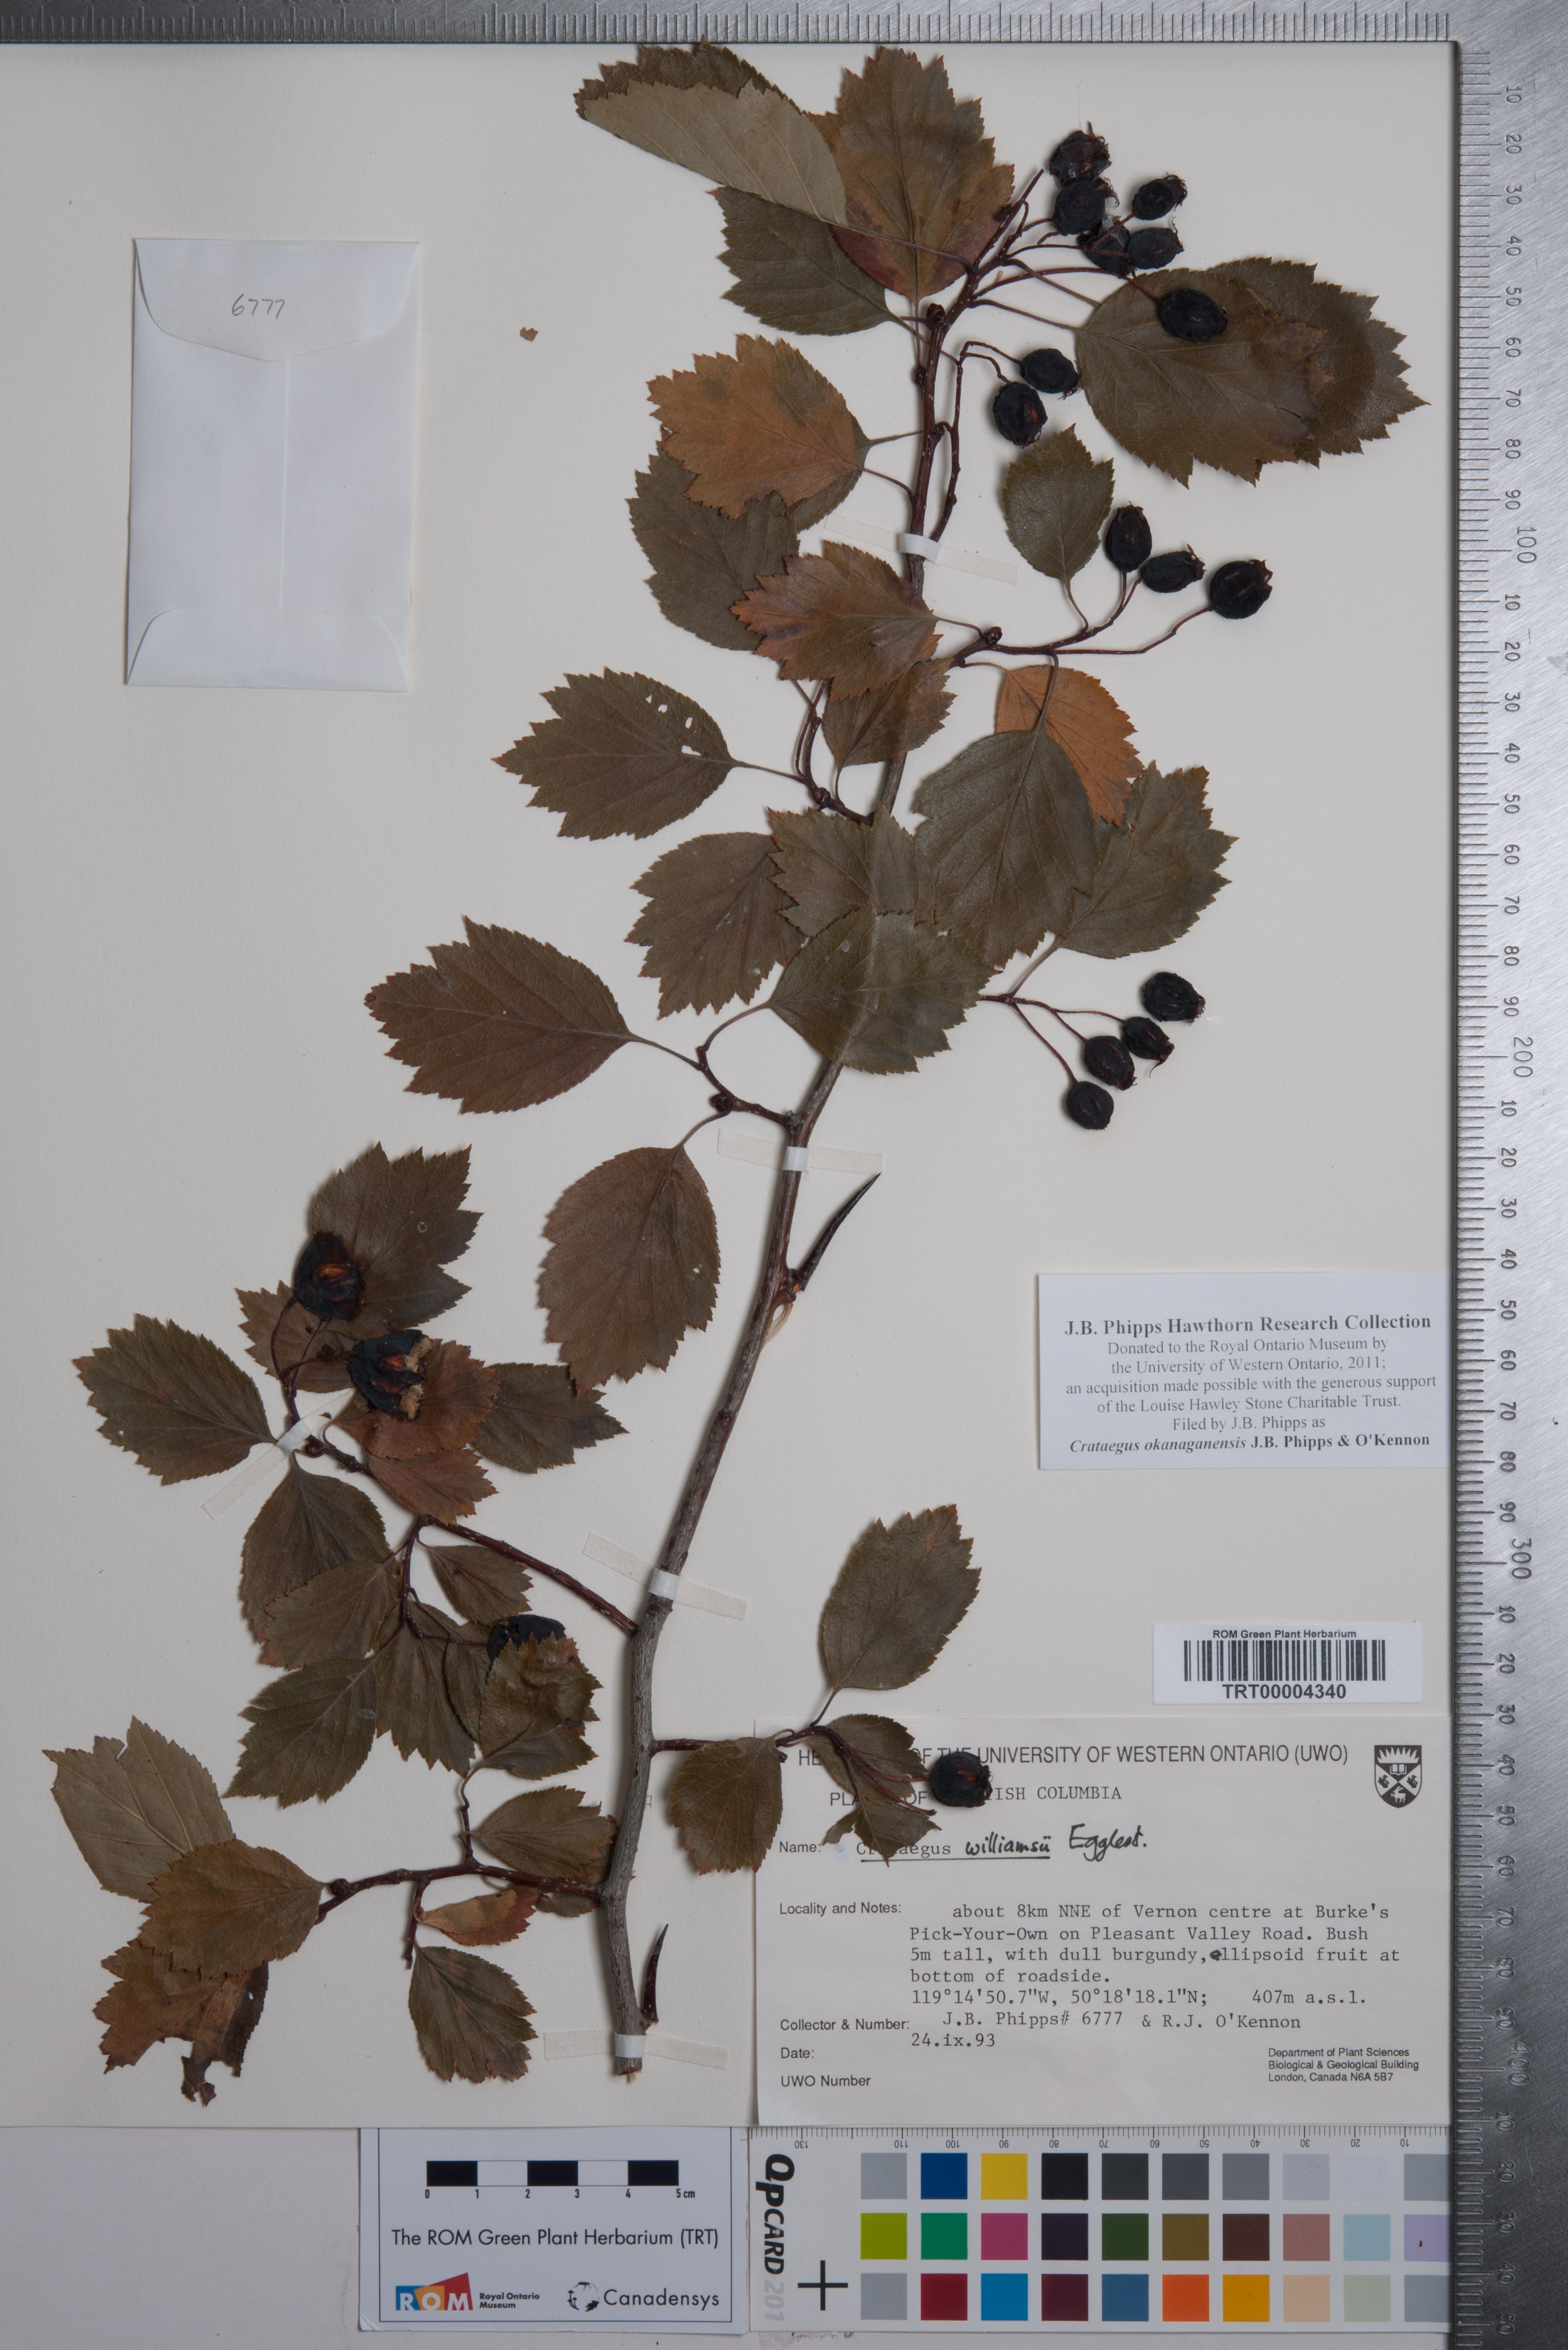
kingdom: Plantae
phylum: Tracheophyta
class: Magnoliopsida
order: Rosales
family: Rosaceae
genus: Crataegus
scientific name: Crataegus okanaganensis
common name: Okanagan valley hawthorn
